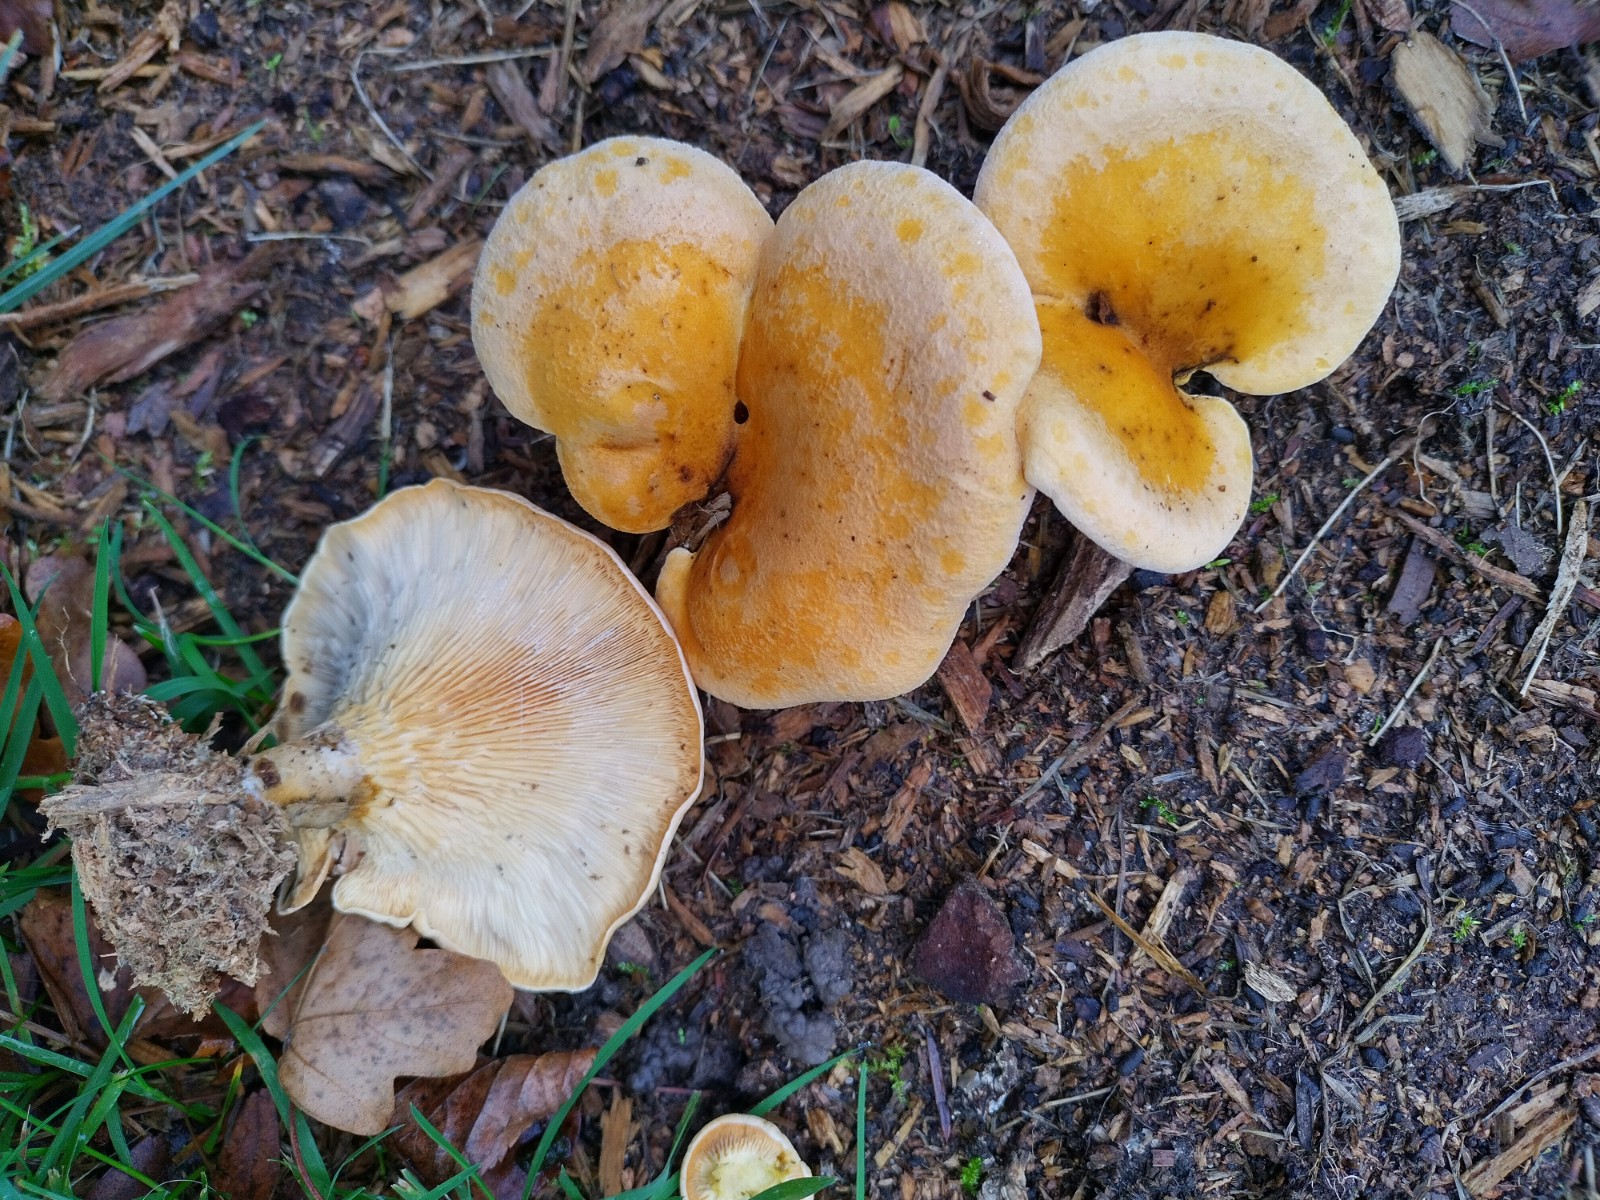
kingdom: Fungi
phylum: Basidiomycota
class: Agaricomycetes
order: Boletales
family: Hygrophoropsidaceae
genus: Hygrophoropsis
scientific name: Hygrophoropsis pallida
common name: bleg orangekantarel
